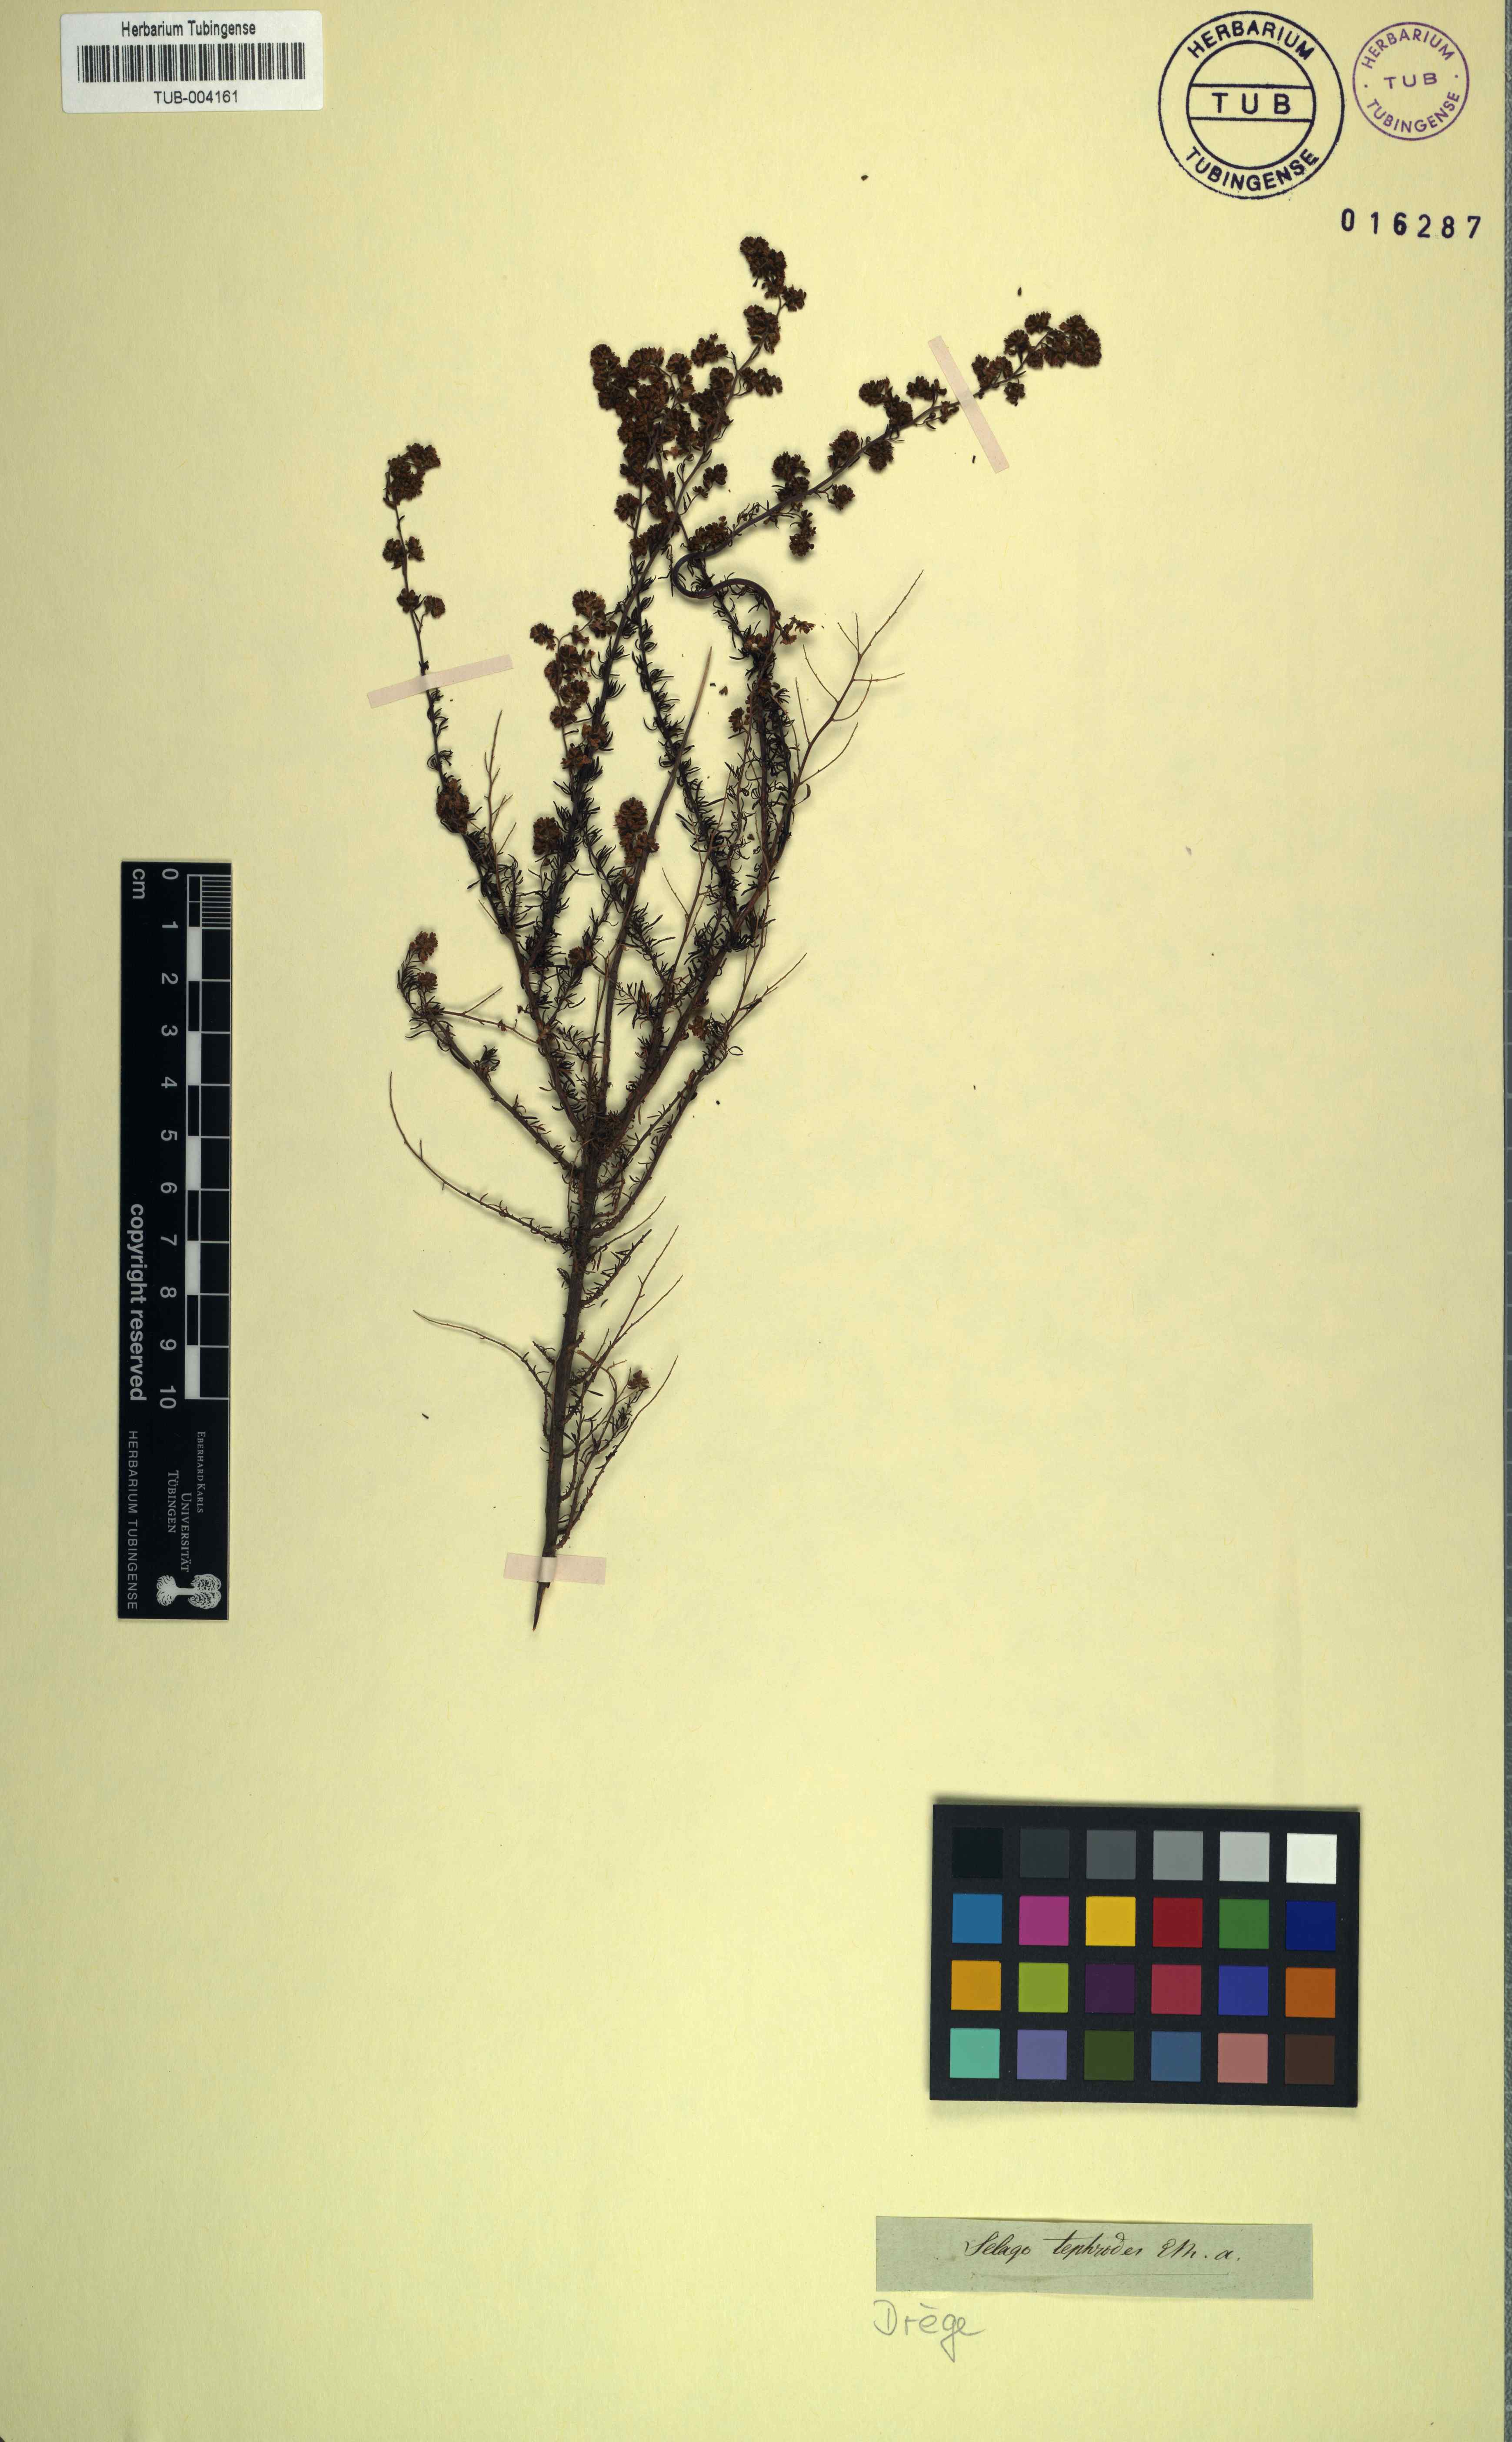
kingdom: Plantae
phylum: Tracheophyta
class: Magnoliopsida
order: Lamiales
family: Scrophulariaceae
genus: Globulariopsis
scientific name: Globulariopsis tephrodes
